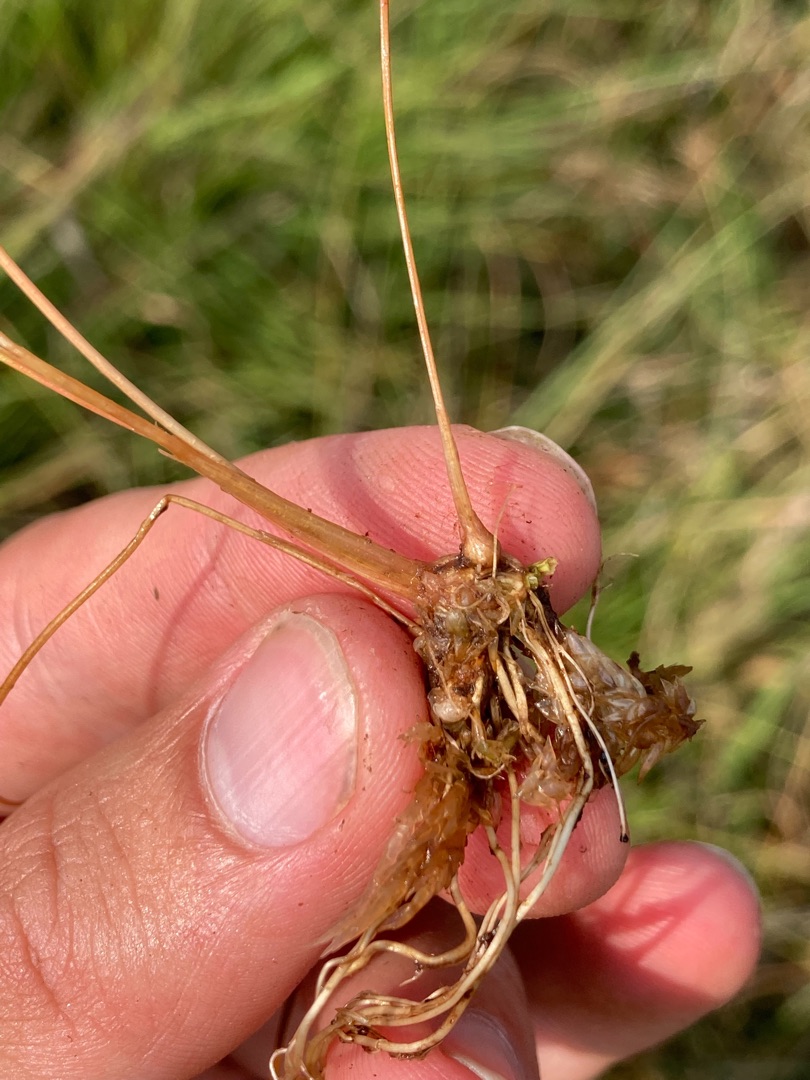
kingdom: Plantae
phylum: Tracheophyta
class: Liliopsida
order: Poales
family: Juncaceae
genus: Juncus
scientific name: Juncus bulbosus
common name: Liden siv
